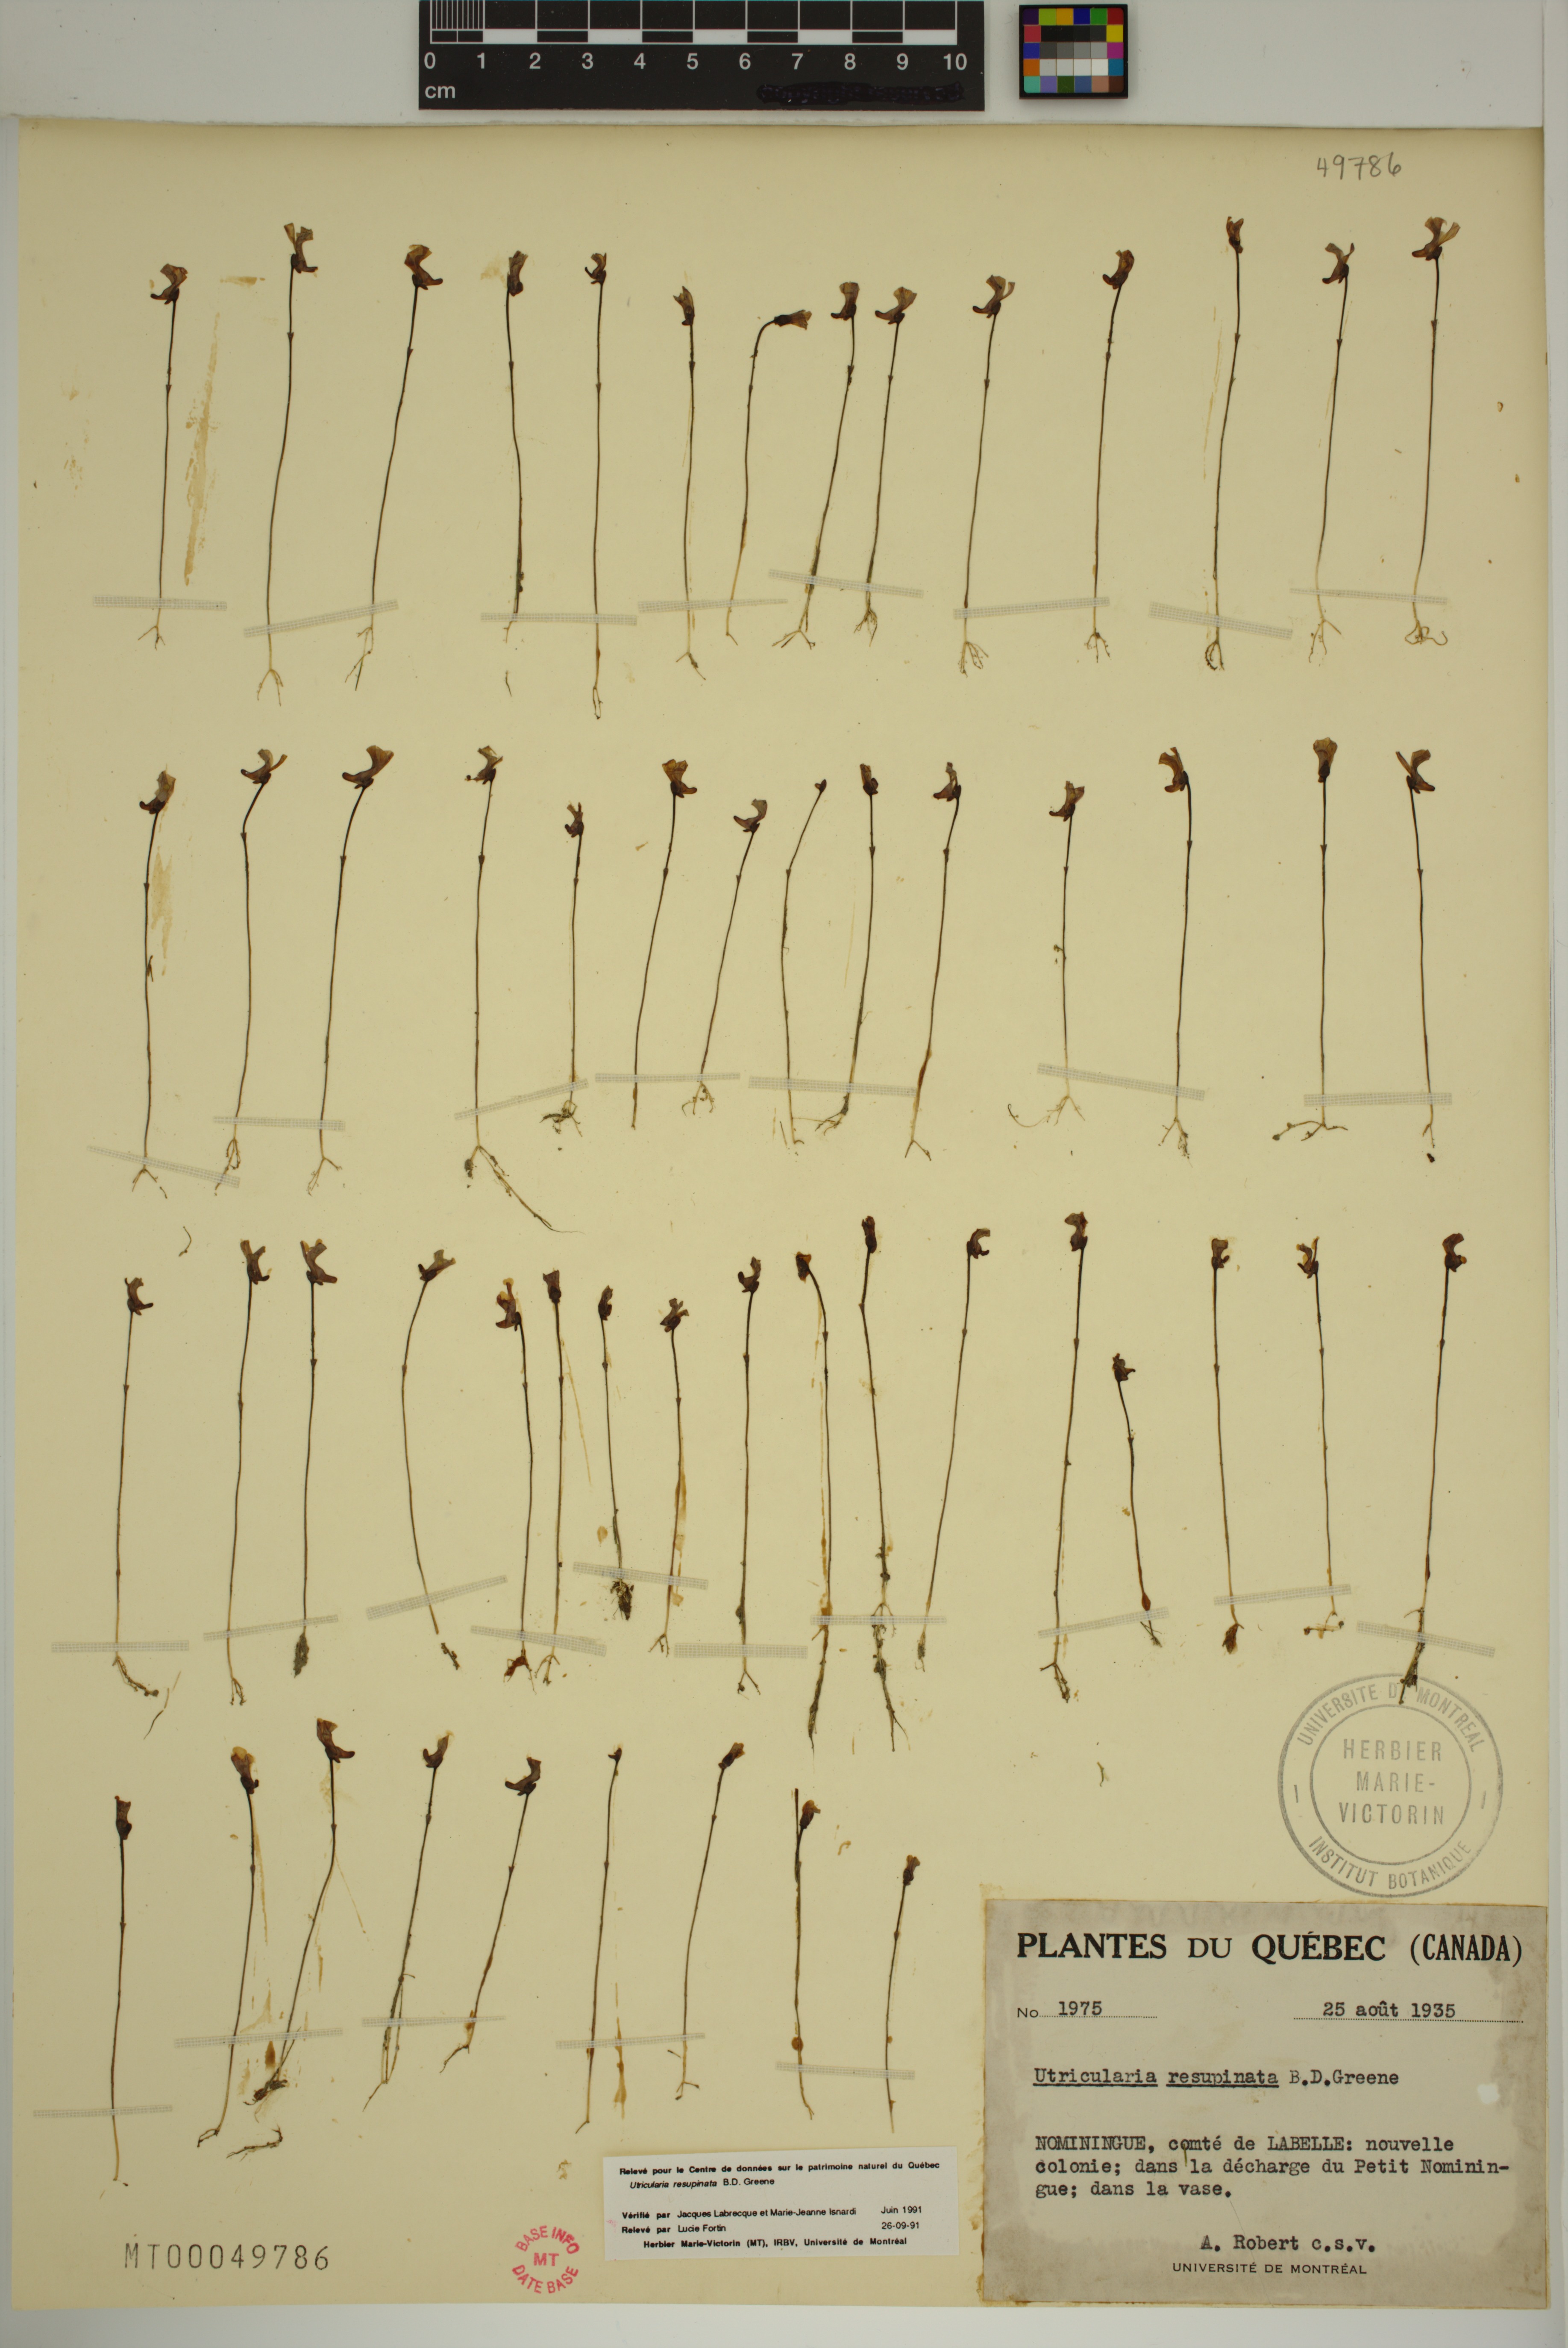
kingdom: Plantae
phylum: Tracheophyta
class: Magnoliopsida
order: Lamiales
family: Lentibulariaceae
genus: Utricularia
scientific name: Utricularia resupinata
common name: Northeastern bladderwort
